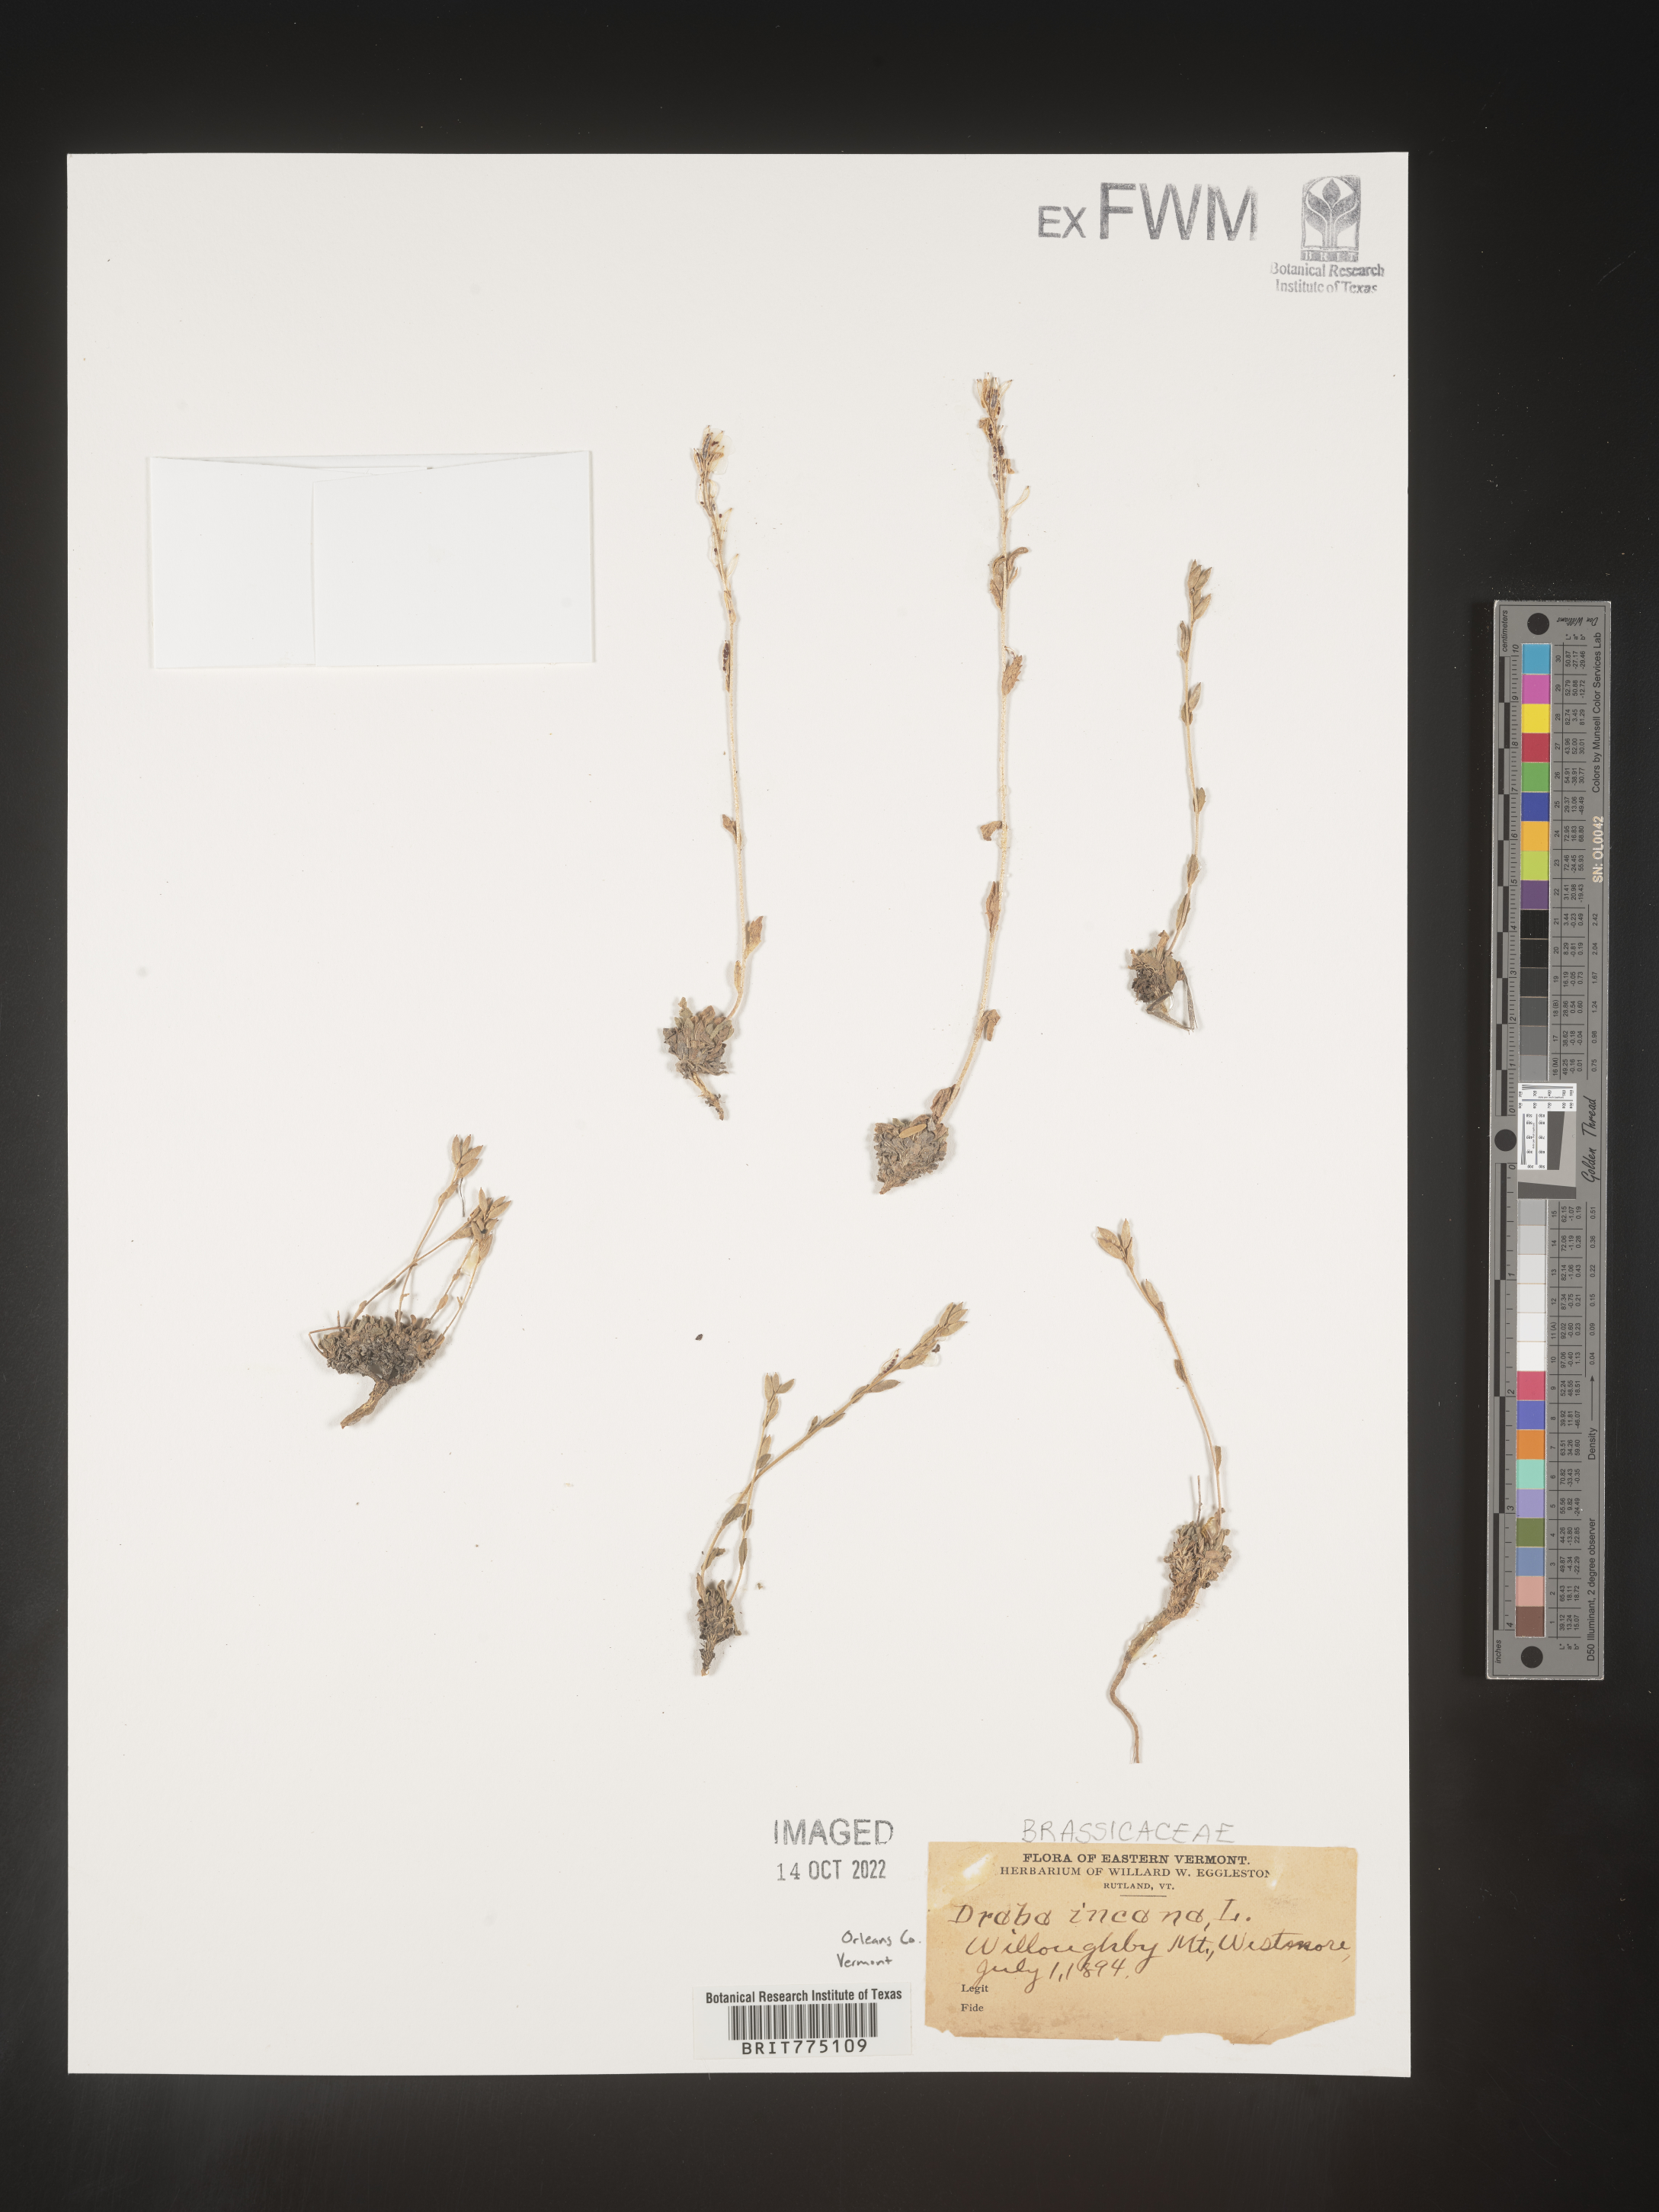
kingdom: Plantae
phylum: Tracheophyta
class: Magnoliopsida
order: Brassicales
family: Brassicaceae
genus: Draba
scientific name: Draba
